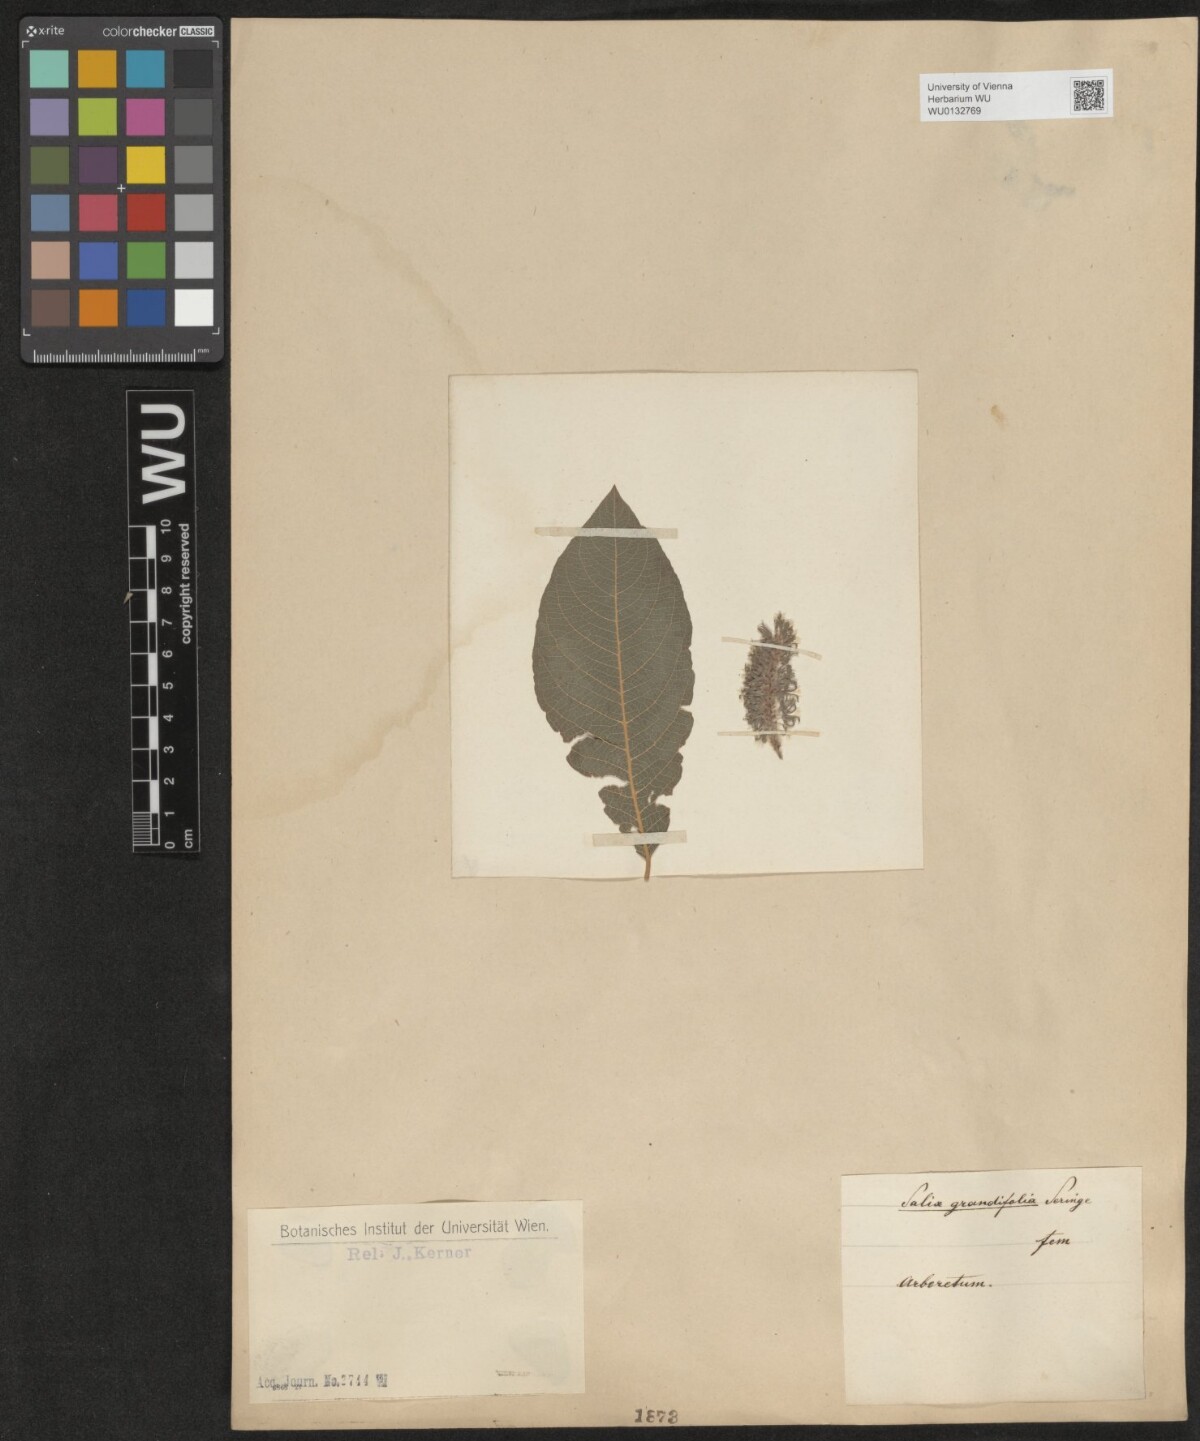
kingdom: Plantae
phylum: Tracheophyta
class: Magnoliopsida
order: Malpighiales
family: Salicaceae
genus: Salix
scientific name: Salix appendiculata
